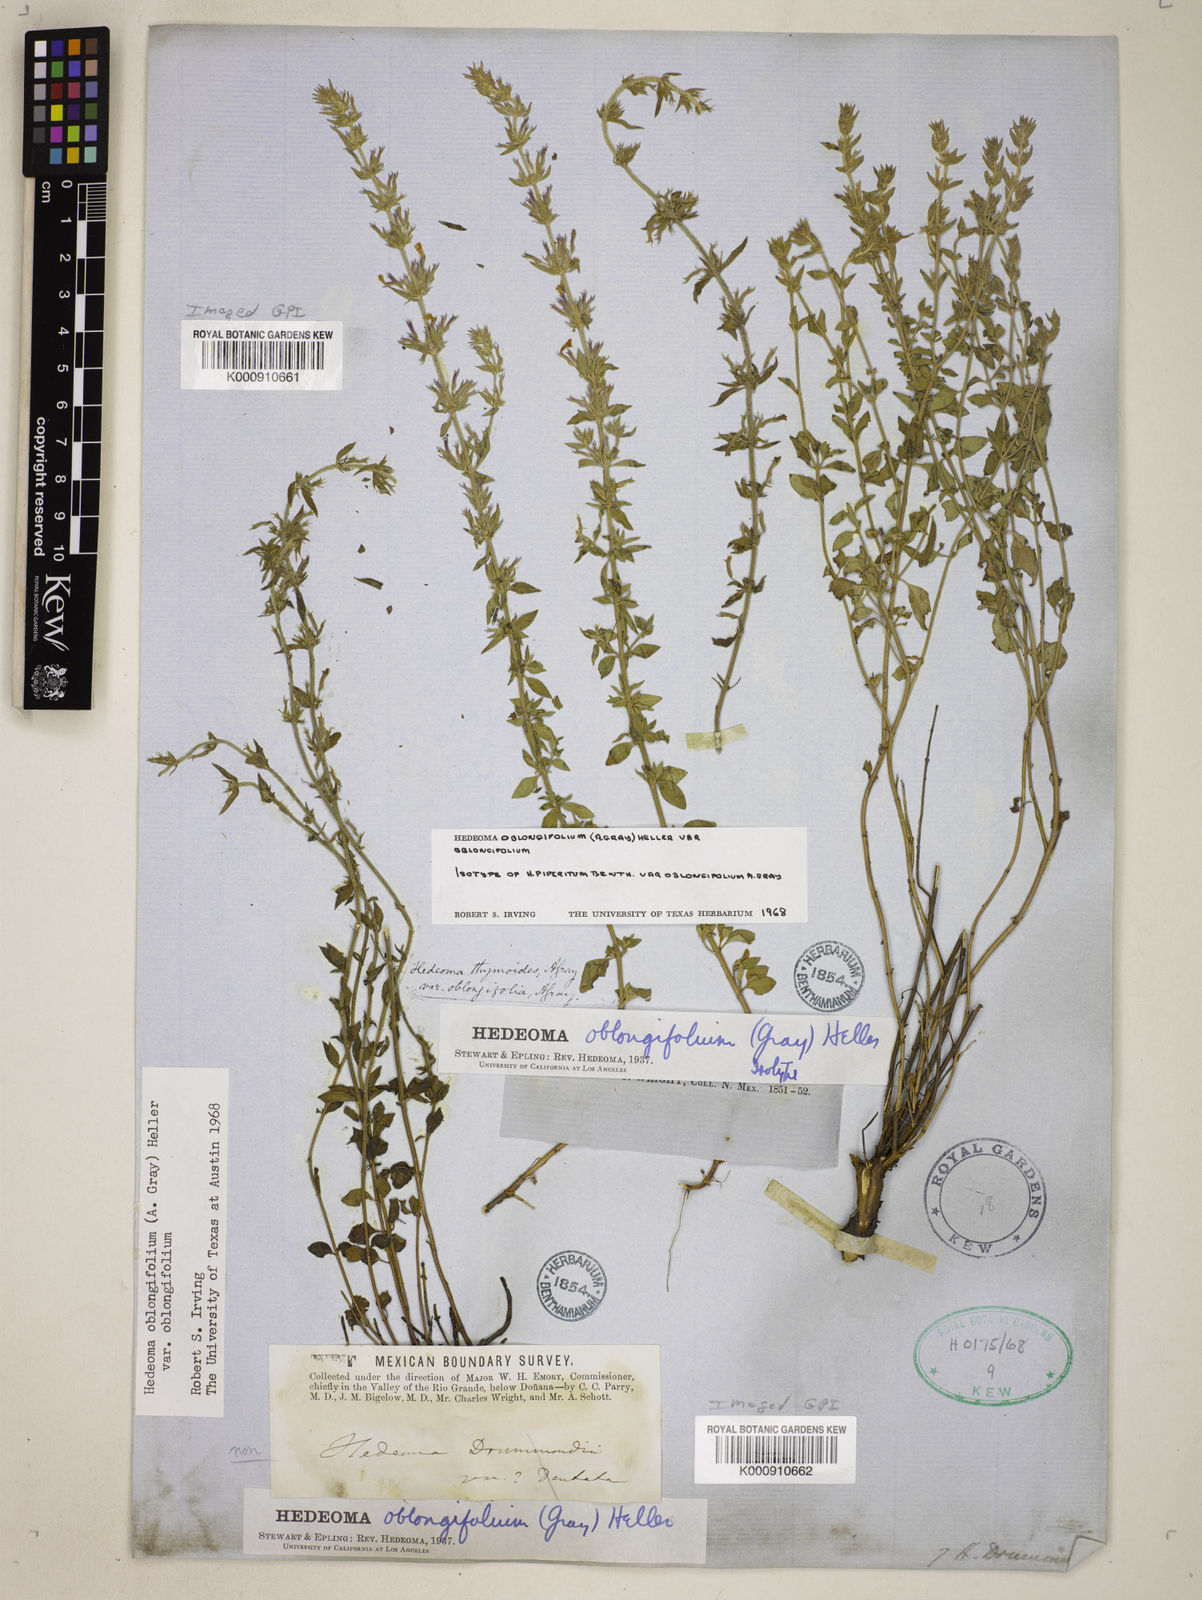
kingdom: Plantae
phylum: Tracheophyta
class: Magnoliopsida
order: Lamiales
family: Lamiaceae
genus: Hedeoma
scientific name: Hedeoma oblongifolia
